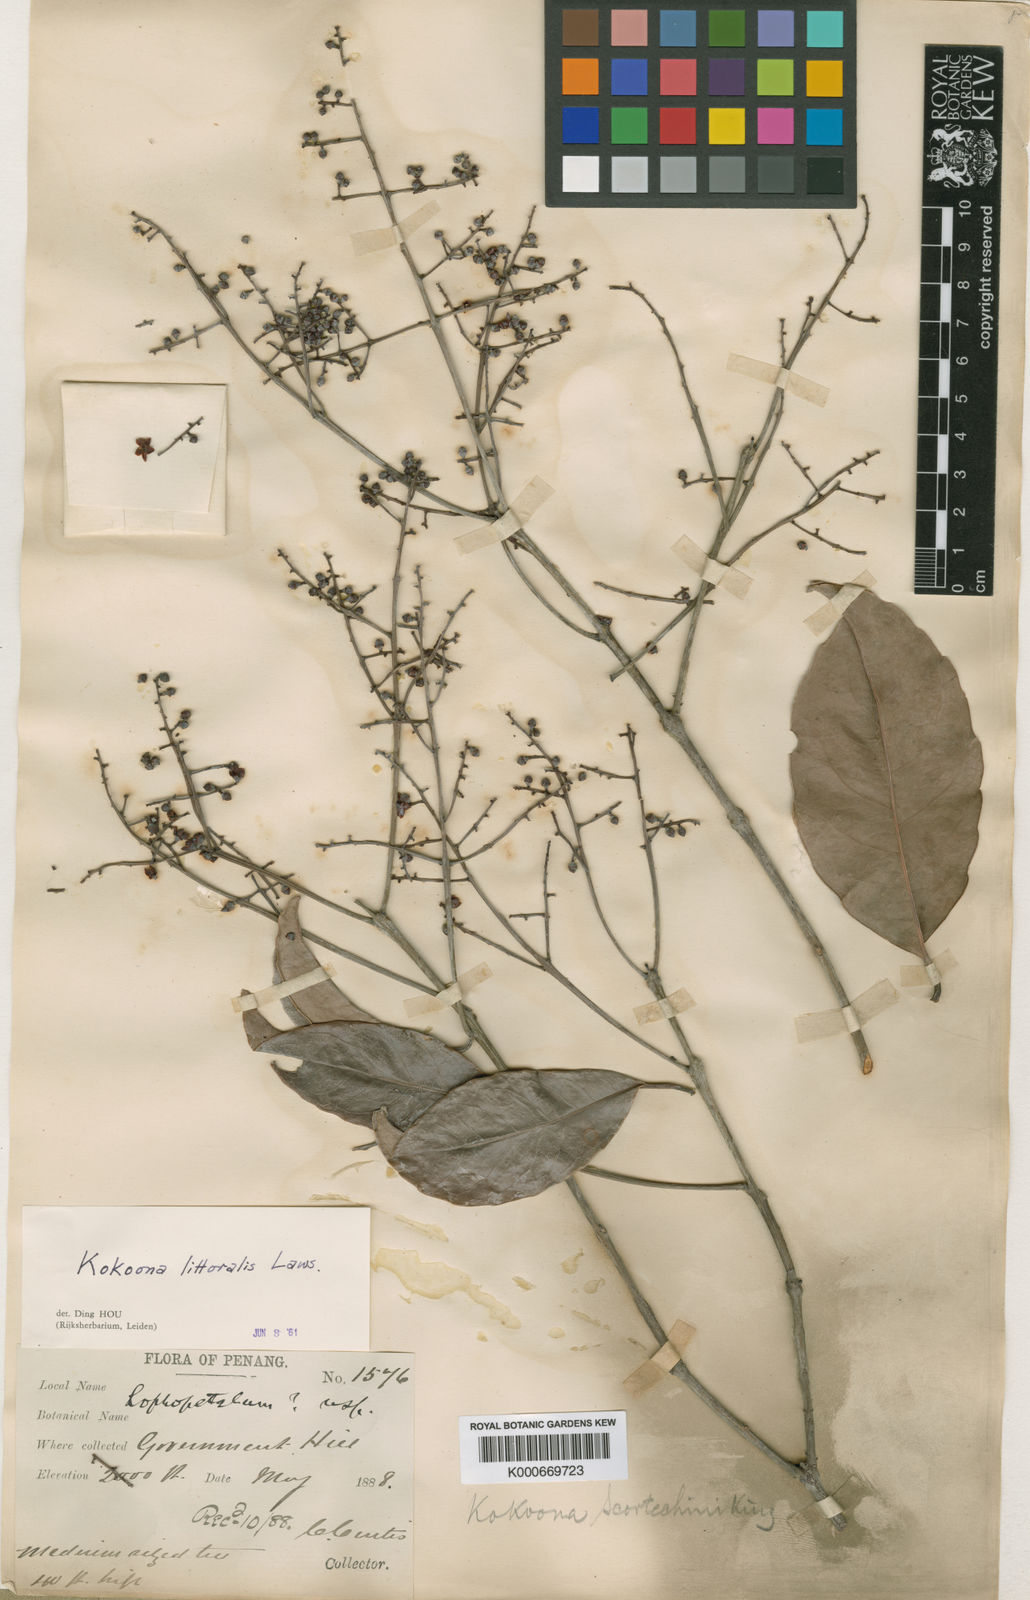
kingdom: Plantae
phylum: Tracheophyta
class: Magnoliopsida
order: Celastrales
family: Celastraceae
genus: Kokoona
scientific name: Kokoona littoralis
